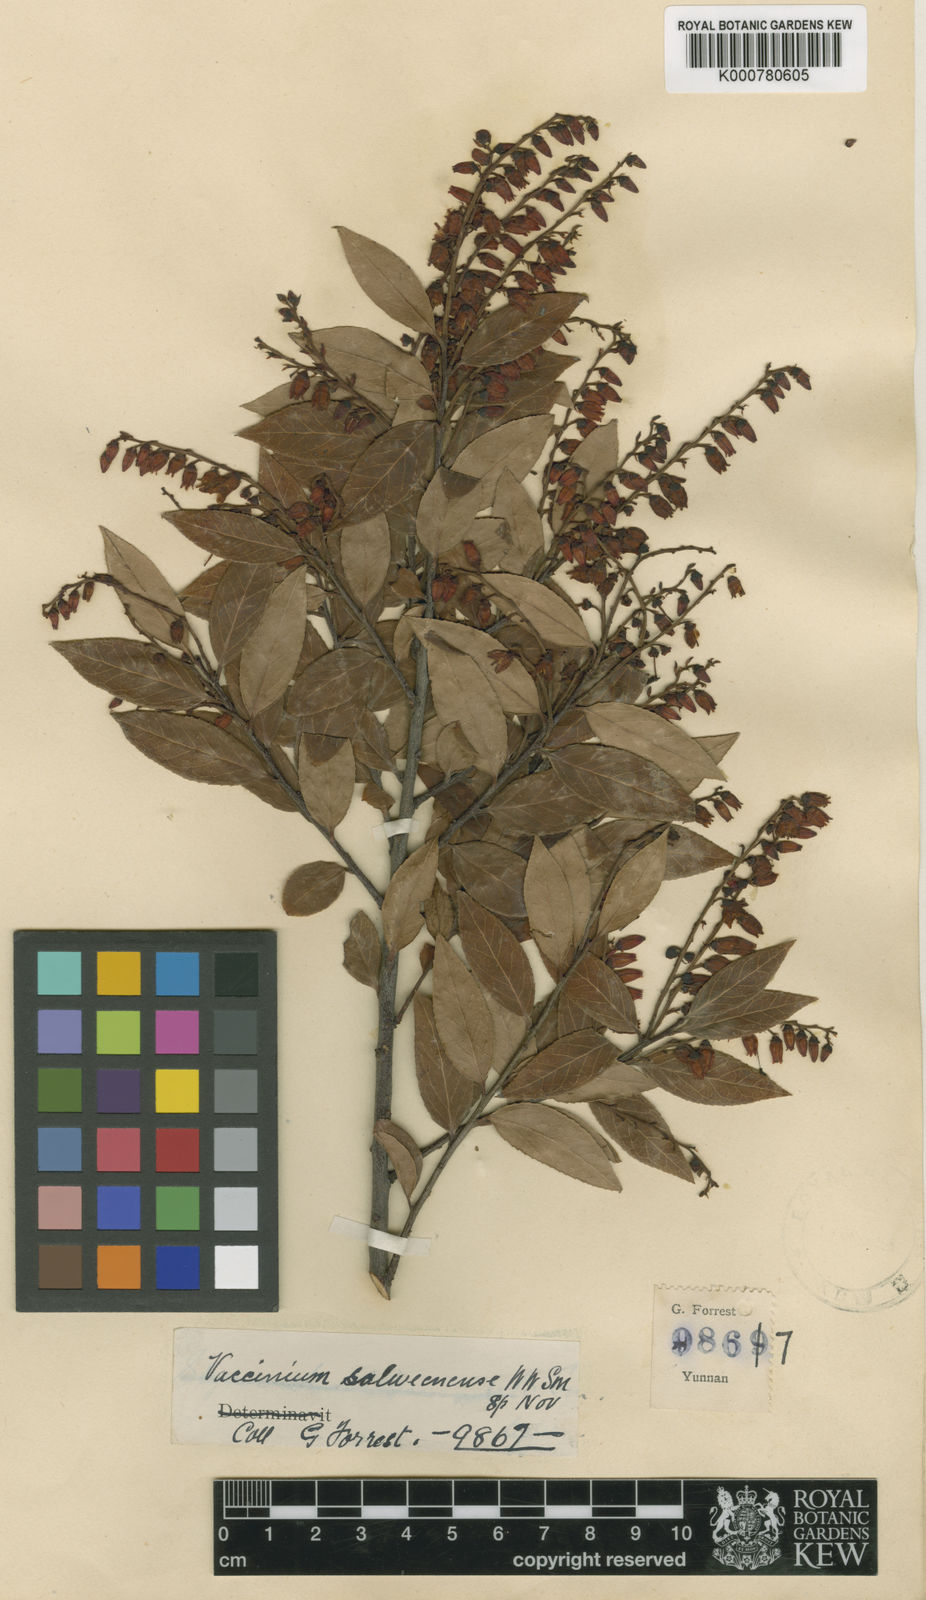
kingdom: Plantae
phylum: Tracheophyta
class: Magnoliopsida
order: Ericales
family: Ericaceae
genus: Vaccinium
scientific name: Vaccinium fragile
